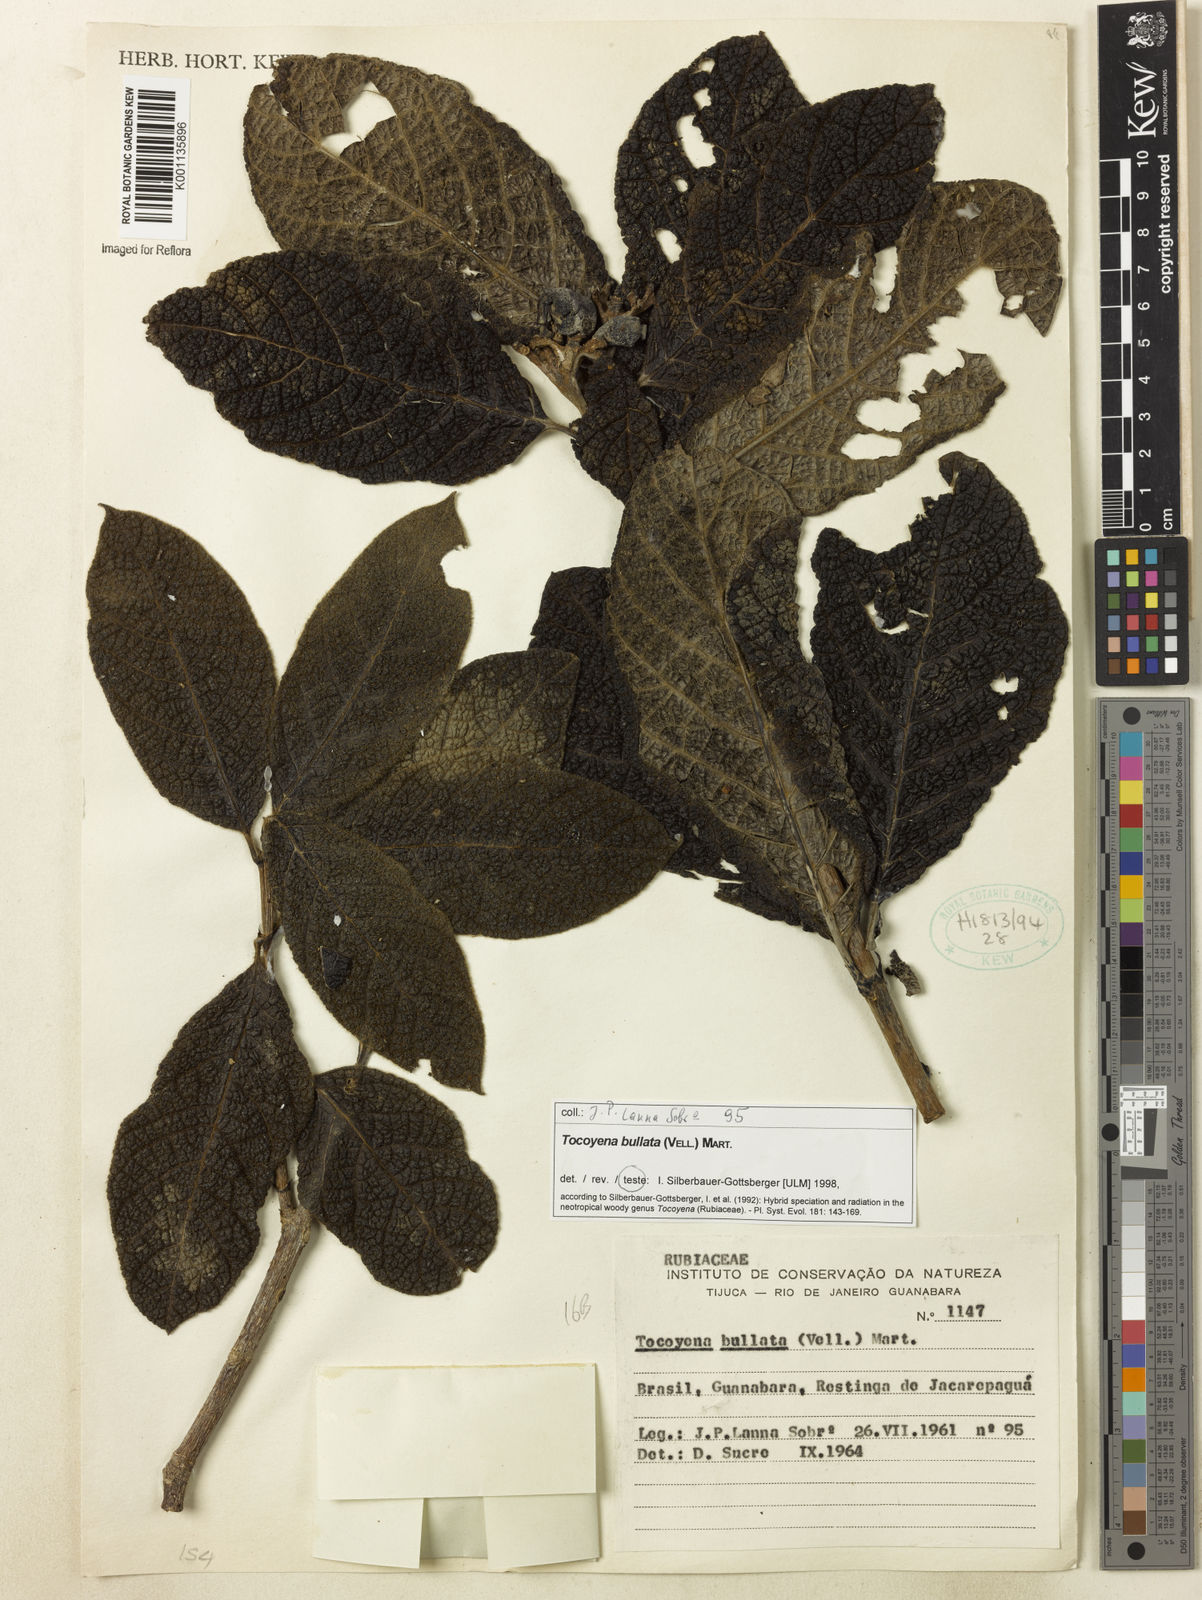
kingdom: Plantae
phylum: Tracheophyta
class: Magnoliopsida
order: Gentianales
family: Rubiaceae
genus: Tocoyena
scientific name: Tocoyena bullata
